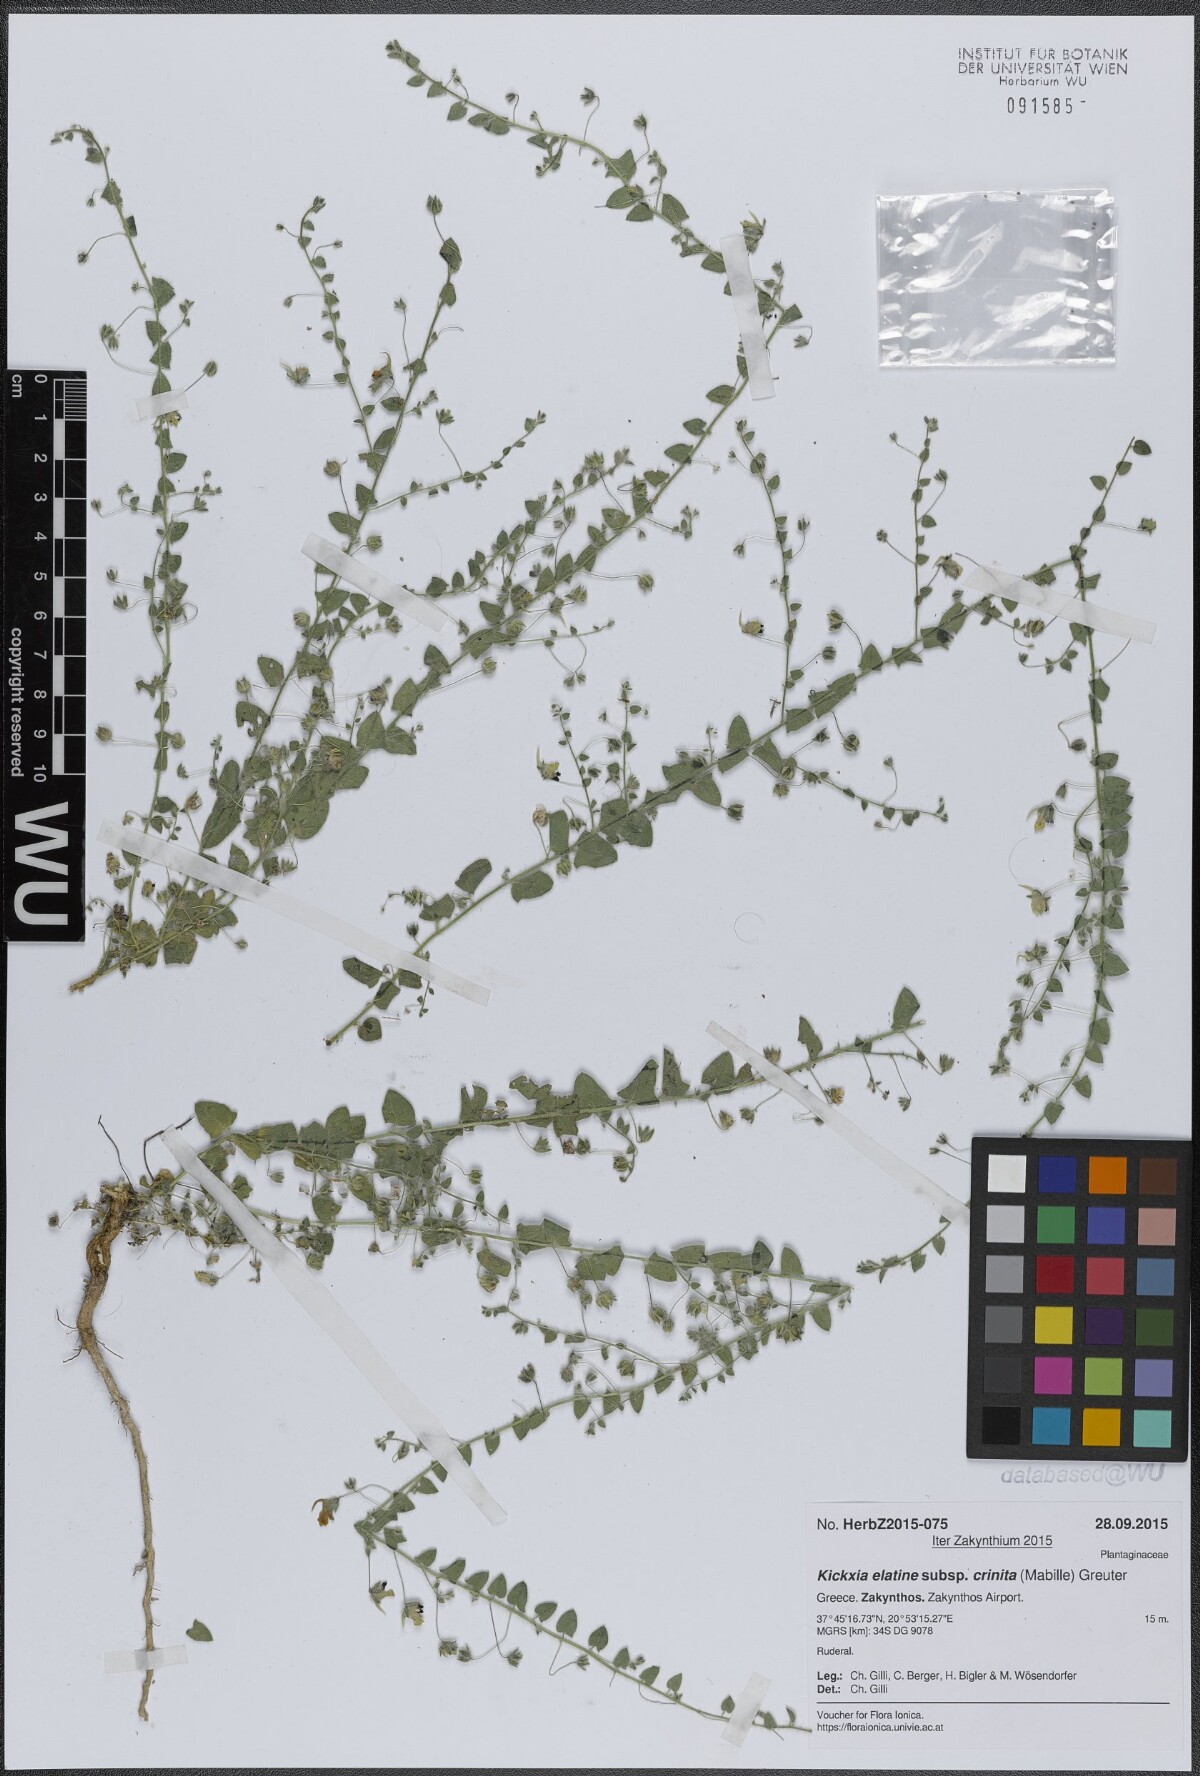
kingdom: Plantae
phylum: Tracheophyta
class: Magnoliopsida
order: Lamiales
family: Plantaginaceae
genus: Kickxia
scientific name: Kickxia elatine
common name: Sharp-leaved fluellen
